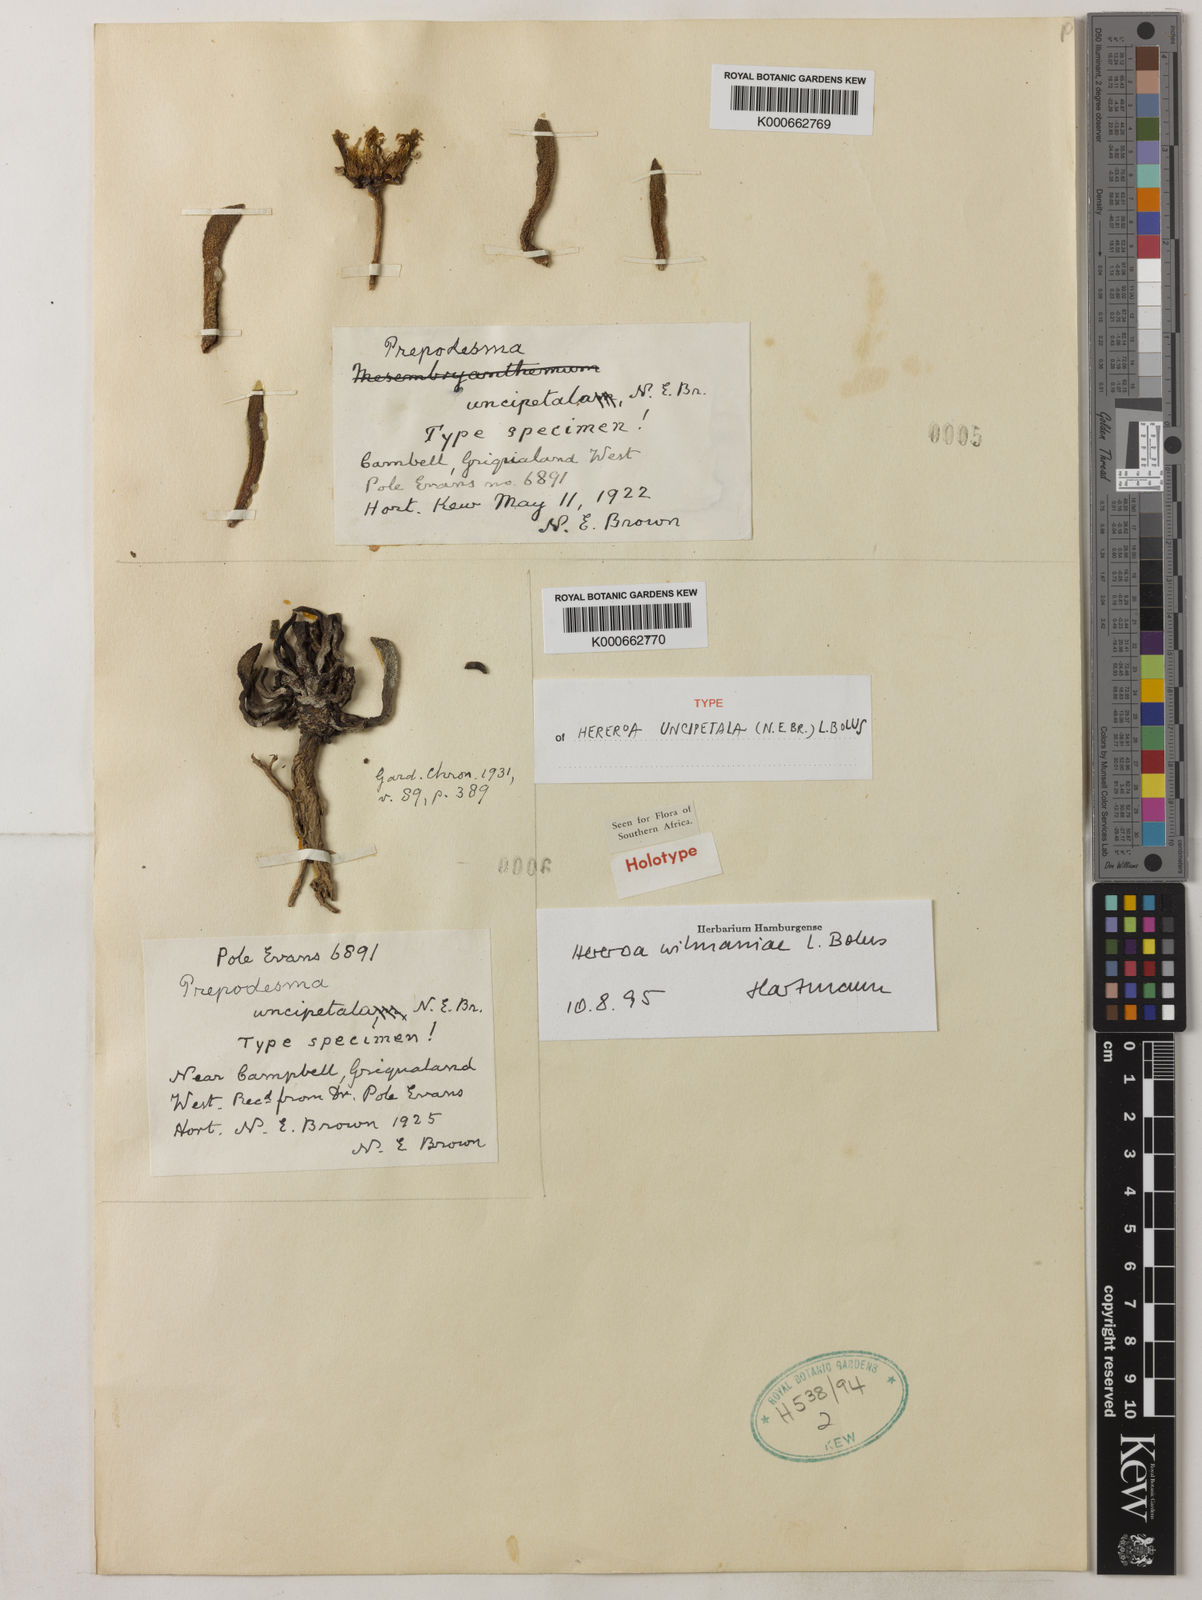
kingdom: Plantae
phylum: Tracheophyta
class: Magnoliopsida
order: Caryophyllales
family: Aizoaceae
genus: Dracophilus
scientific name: Dracophilus Hereroa wilmaniae
